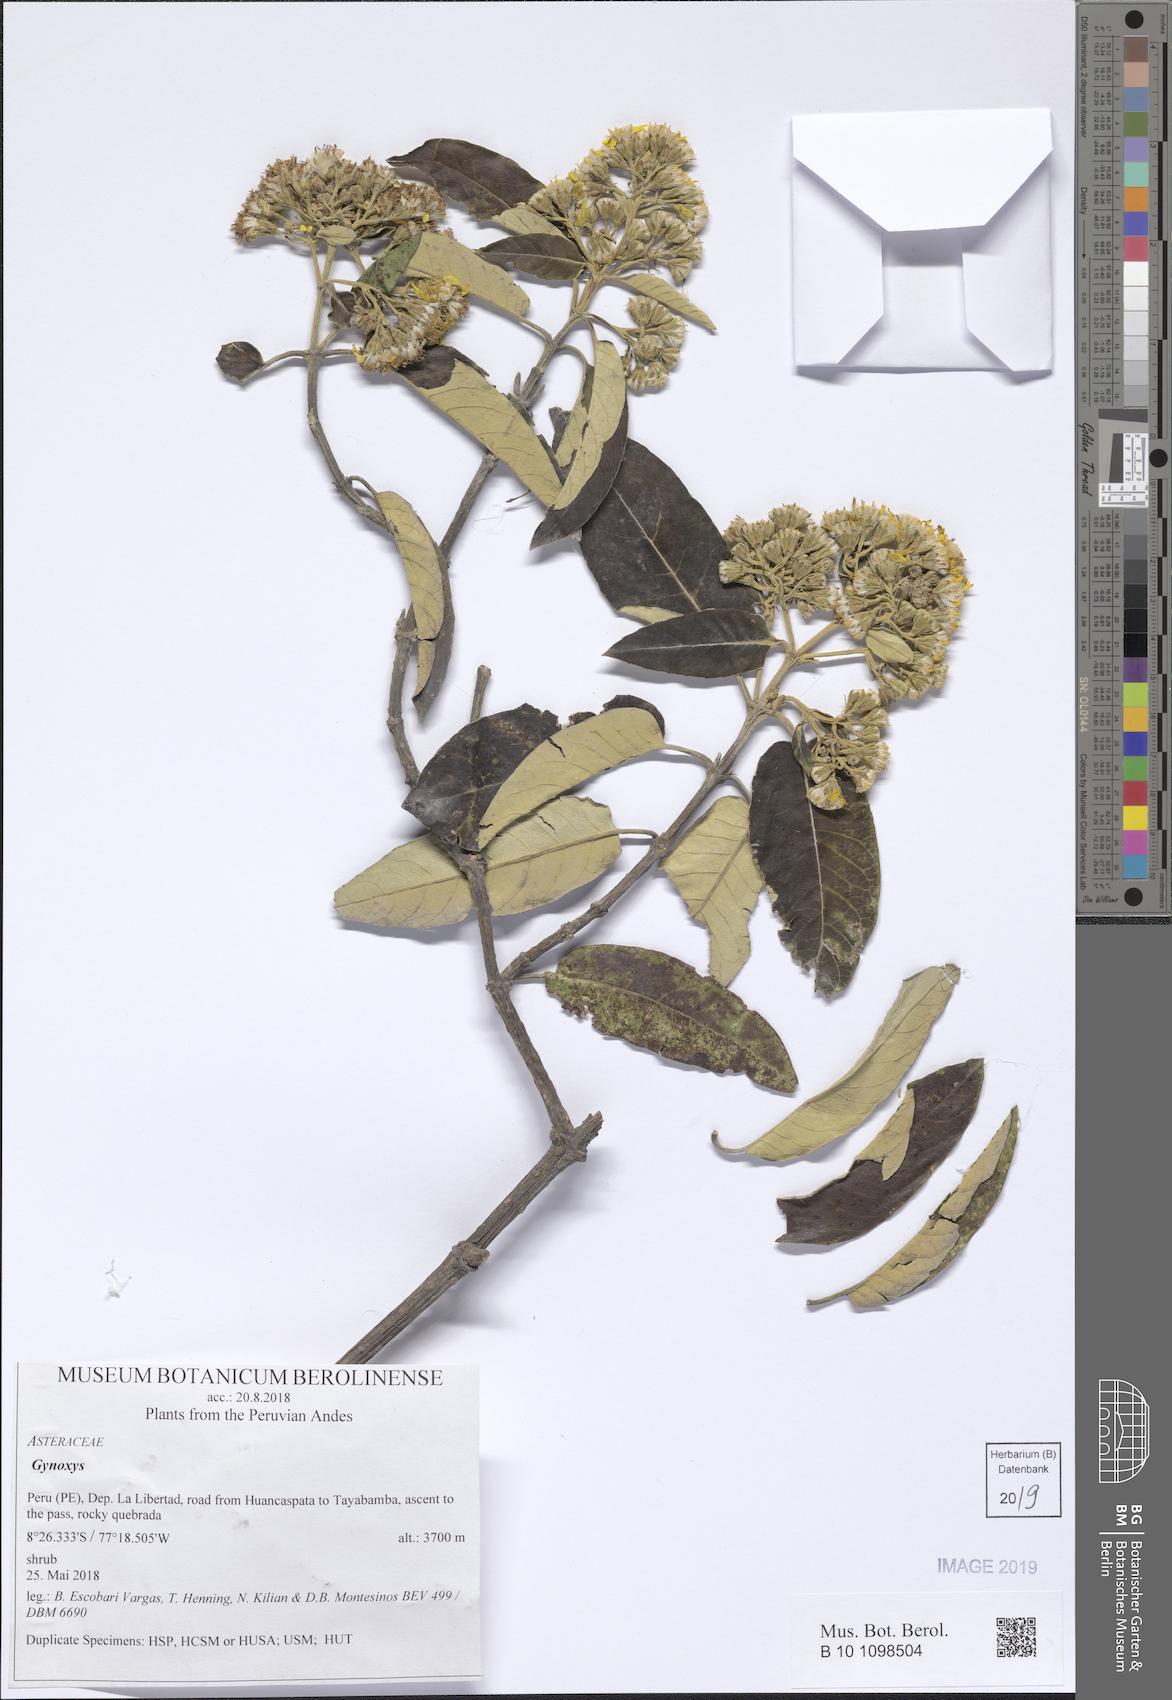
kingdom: Plantae
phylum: Tracheophyta
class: Magnoliopsida
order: Asterales
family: Asteraceae
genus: Gynoxys
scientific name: Gynoxys
